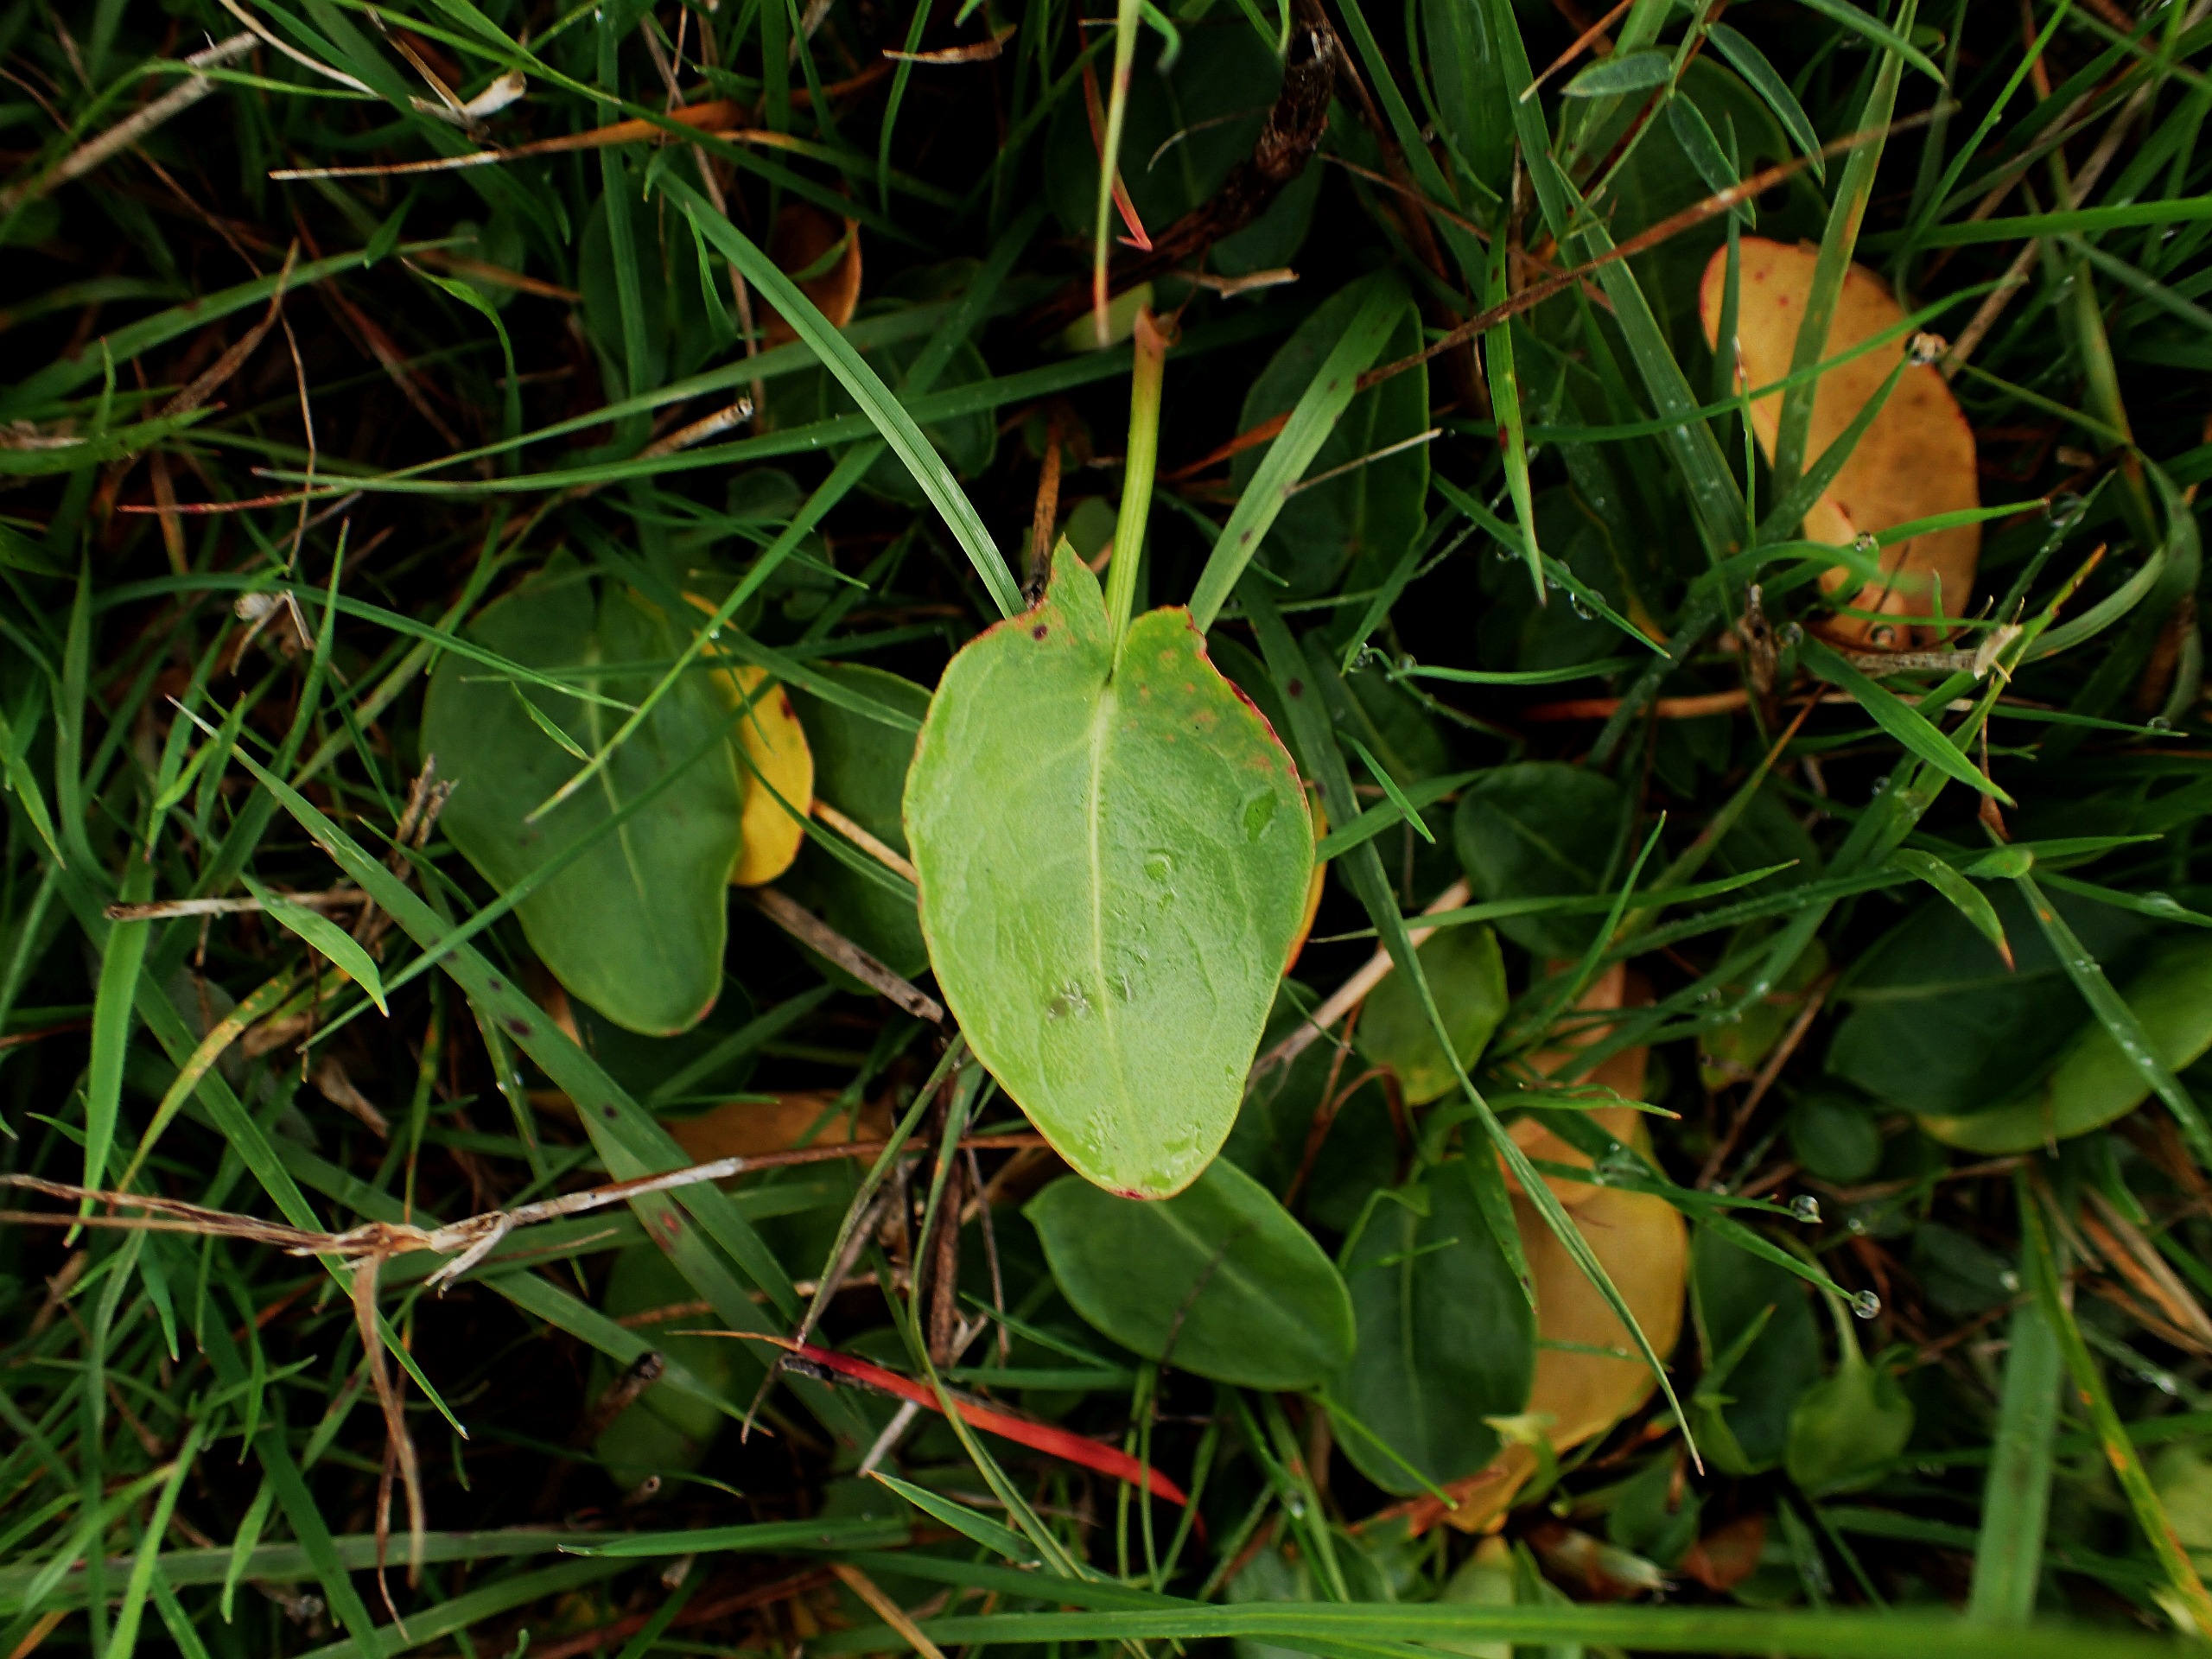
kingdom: Plantae
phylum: Tracheophyta
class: Magnoliopsida
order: Caryophyllales
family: Polygonaceae
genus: Rumex
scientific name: Rumex acetosa
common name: Almindelig syre
